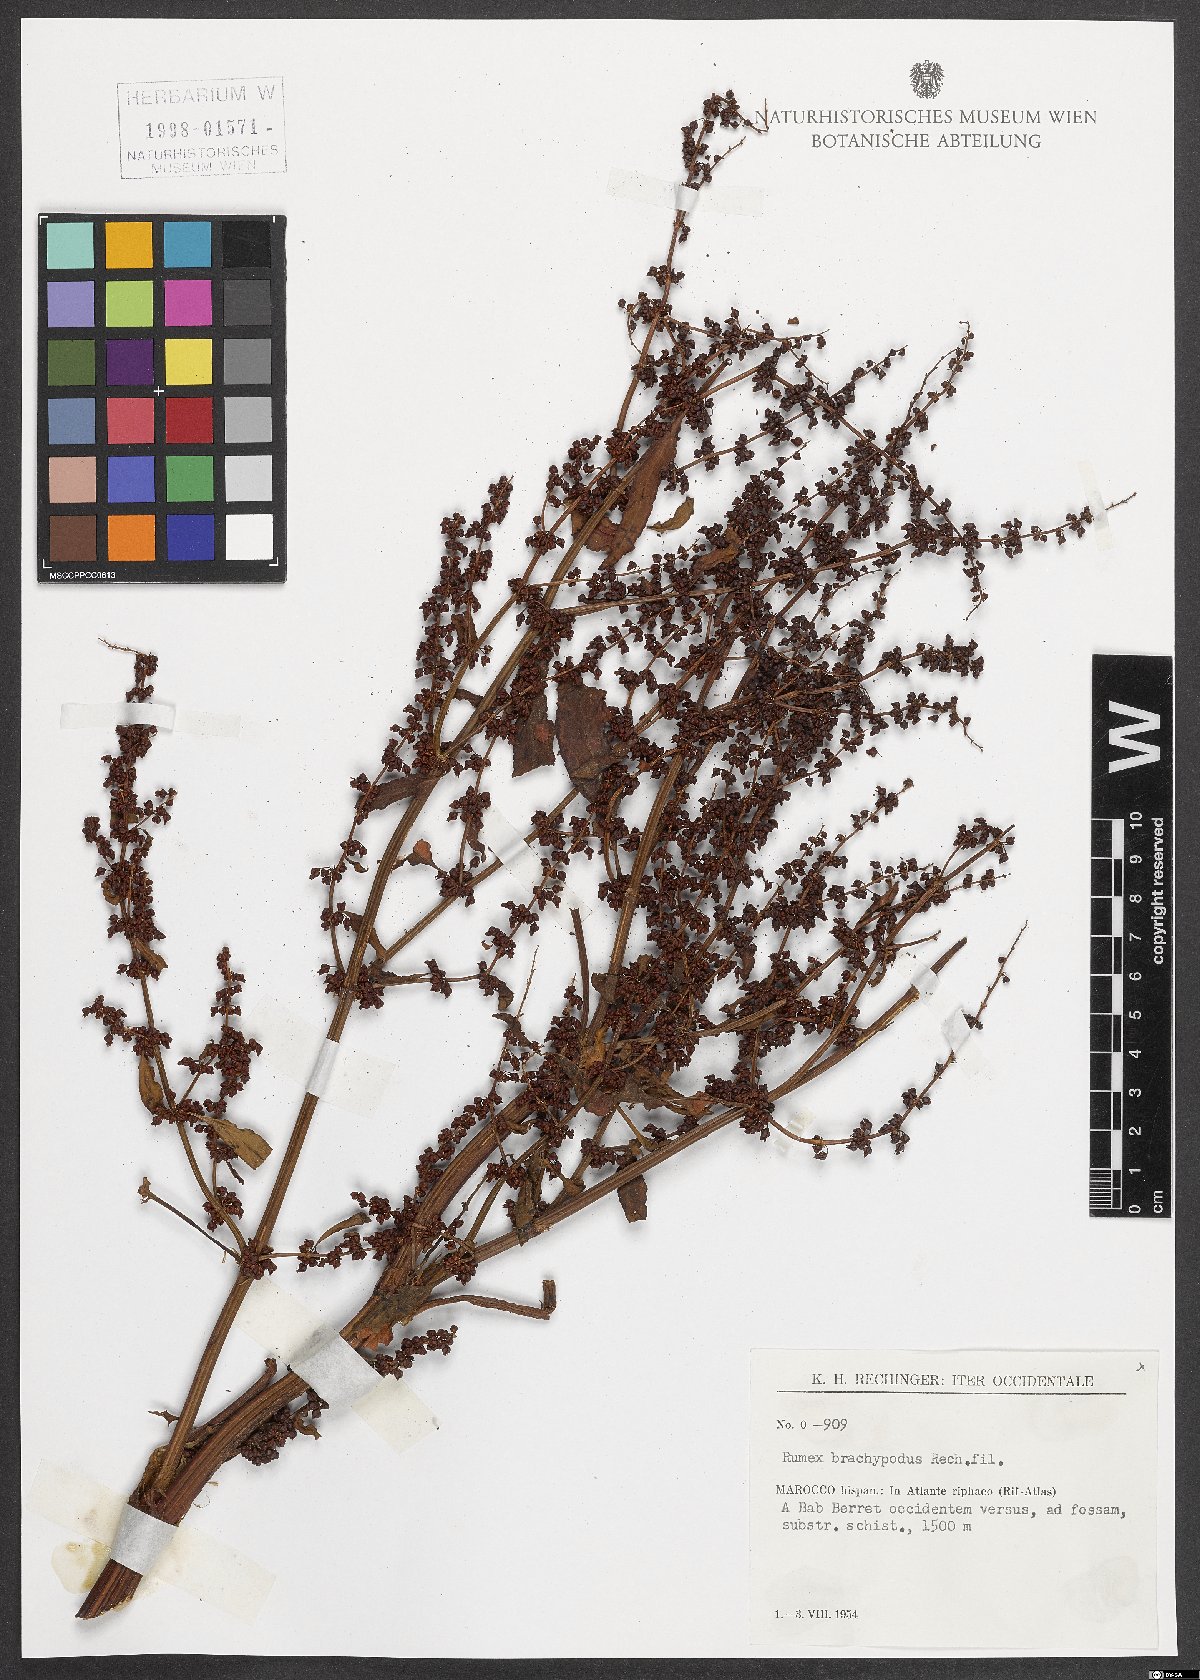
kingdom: Plantae
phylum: Tracheophyta
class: Magnoliopsida
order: Caryophyllales
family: Polygonaceae
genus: Rumex
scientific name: Rumex brachypodus
